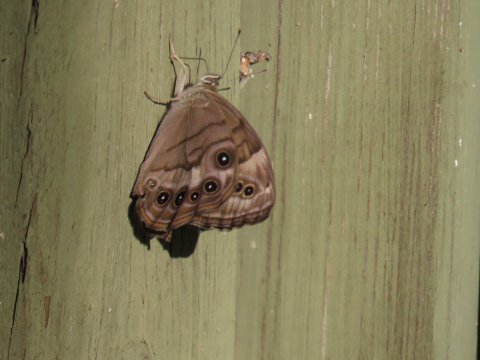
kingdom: Animalia
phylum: Arthropoda
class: Insecta
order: Lepidoptera
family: Nymphalidae
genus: Lethe
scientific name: Lethe anthedon
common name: Northern Pearly-Eye
